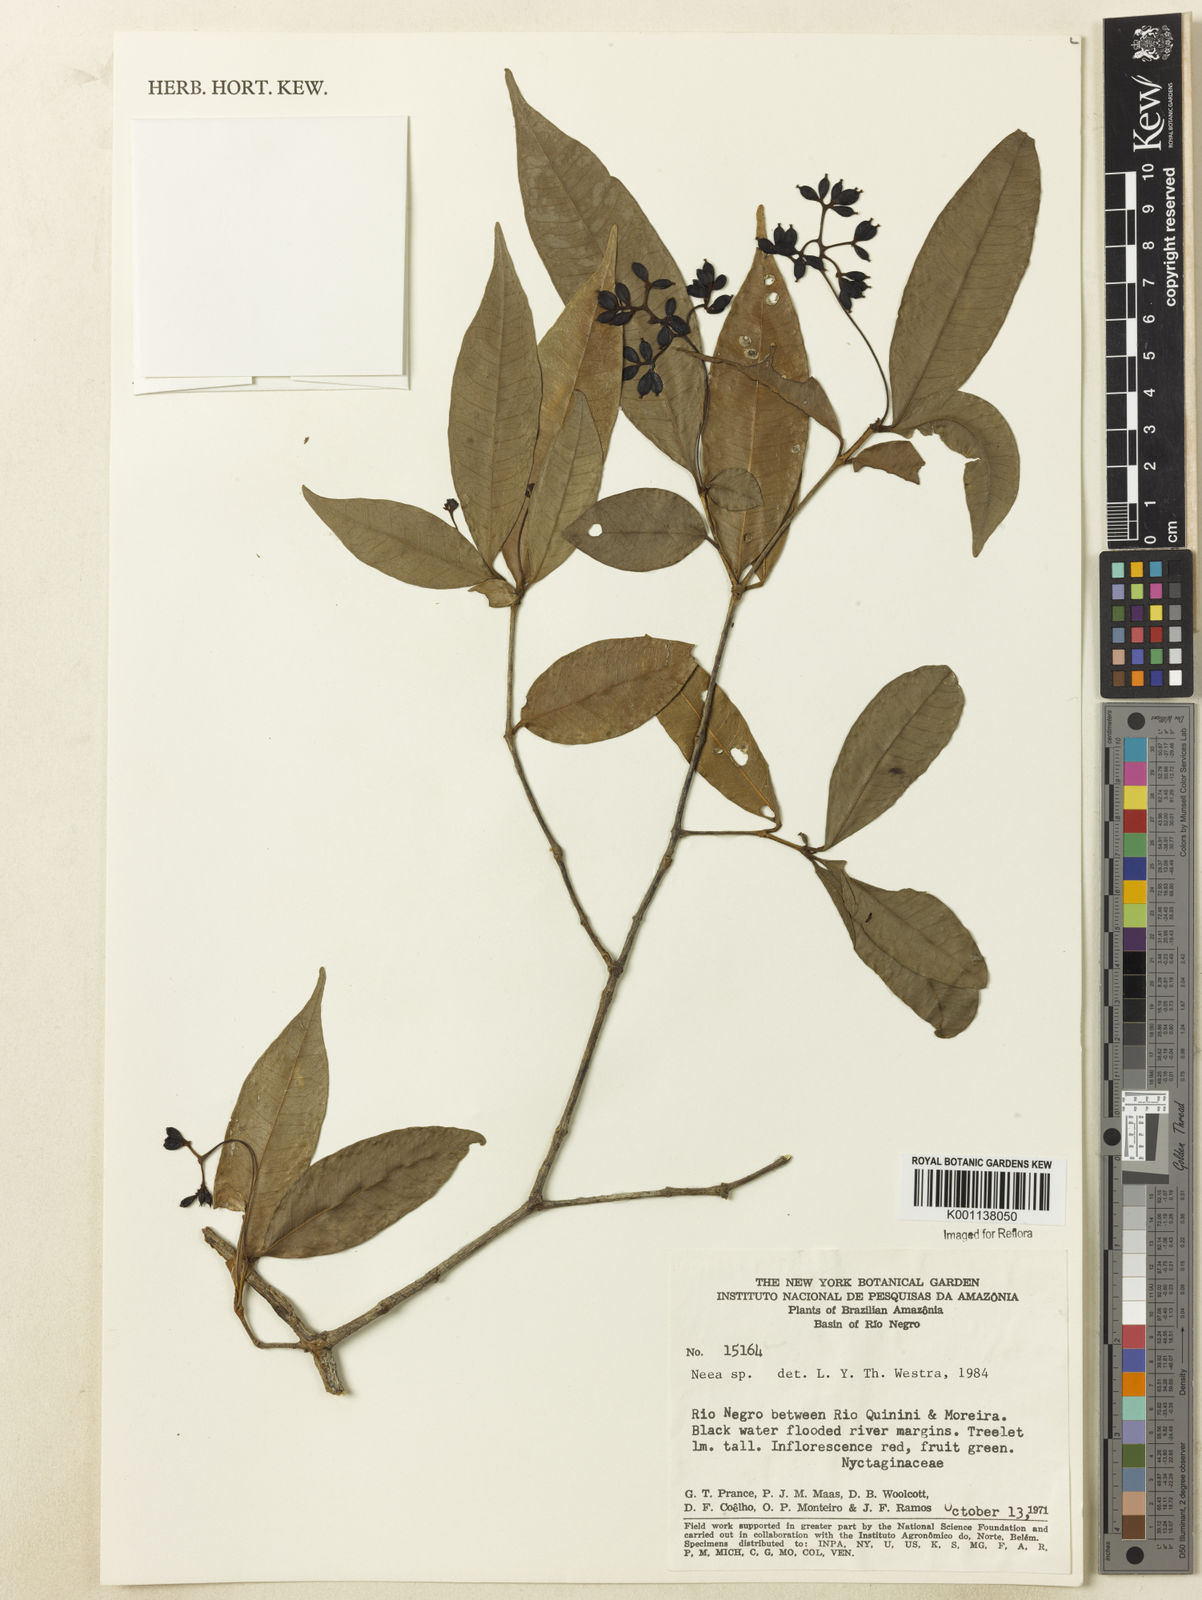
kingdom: Plantae
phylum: Tracheophyta
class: Magnoliopsida
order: Caryophyllales
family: Nyctaginaceae
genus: Neea
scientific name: Neea
